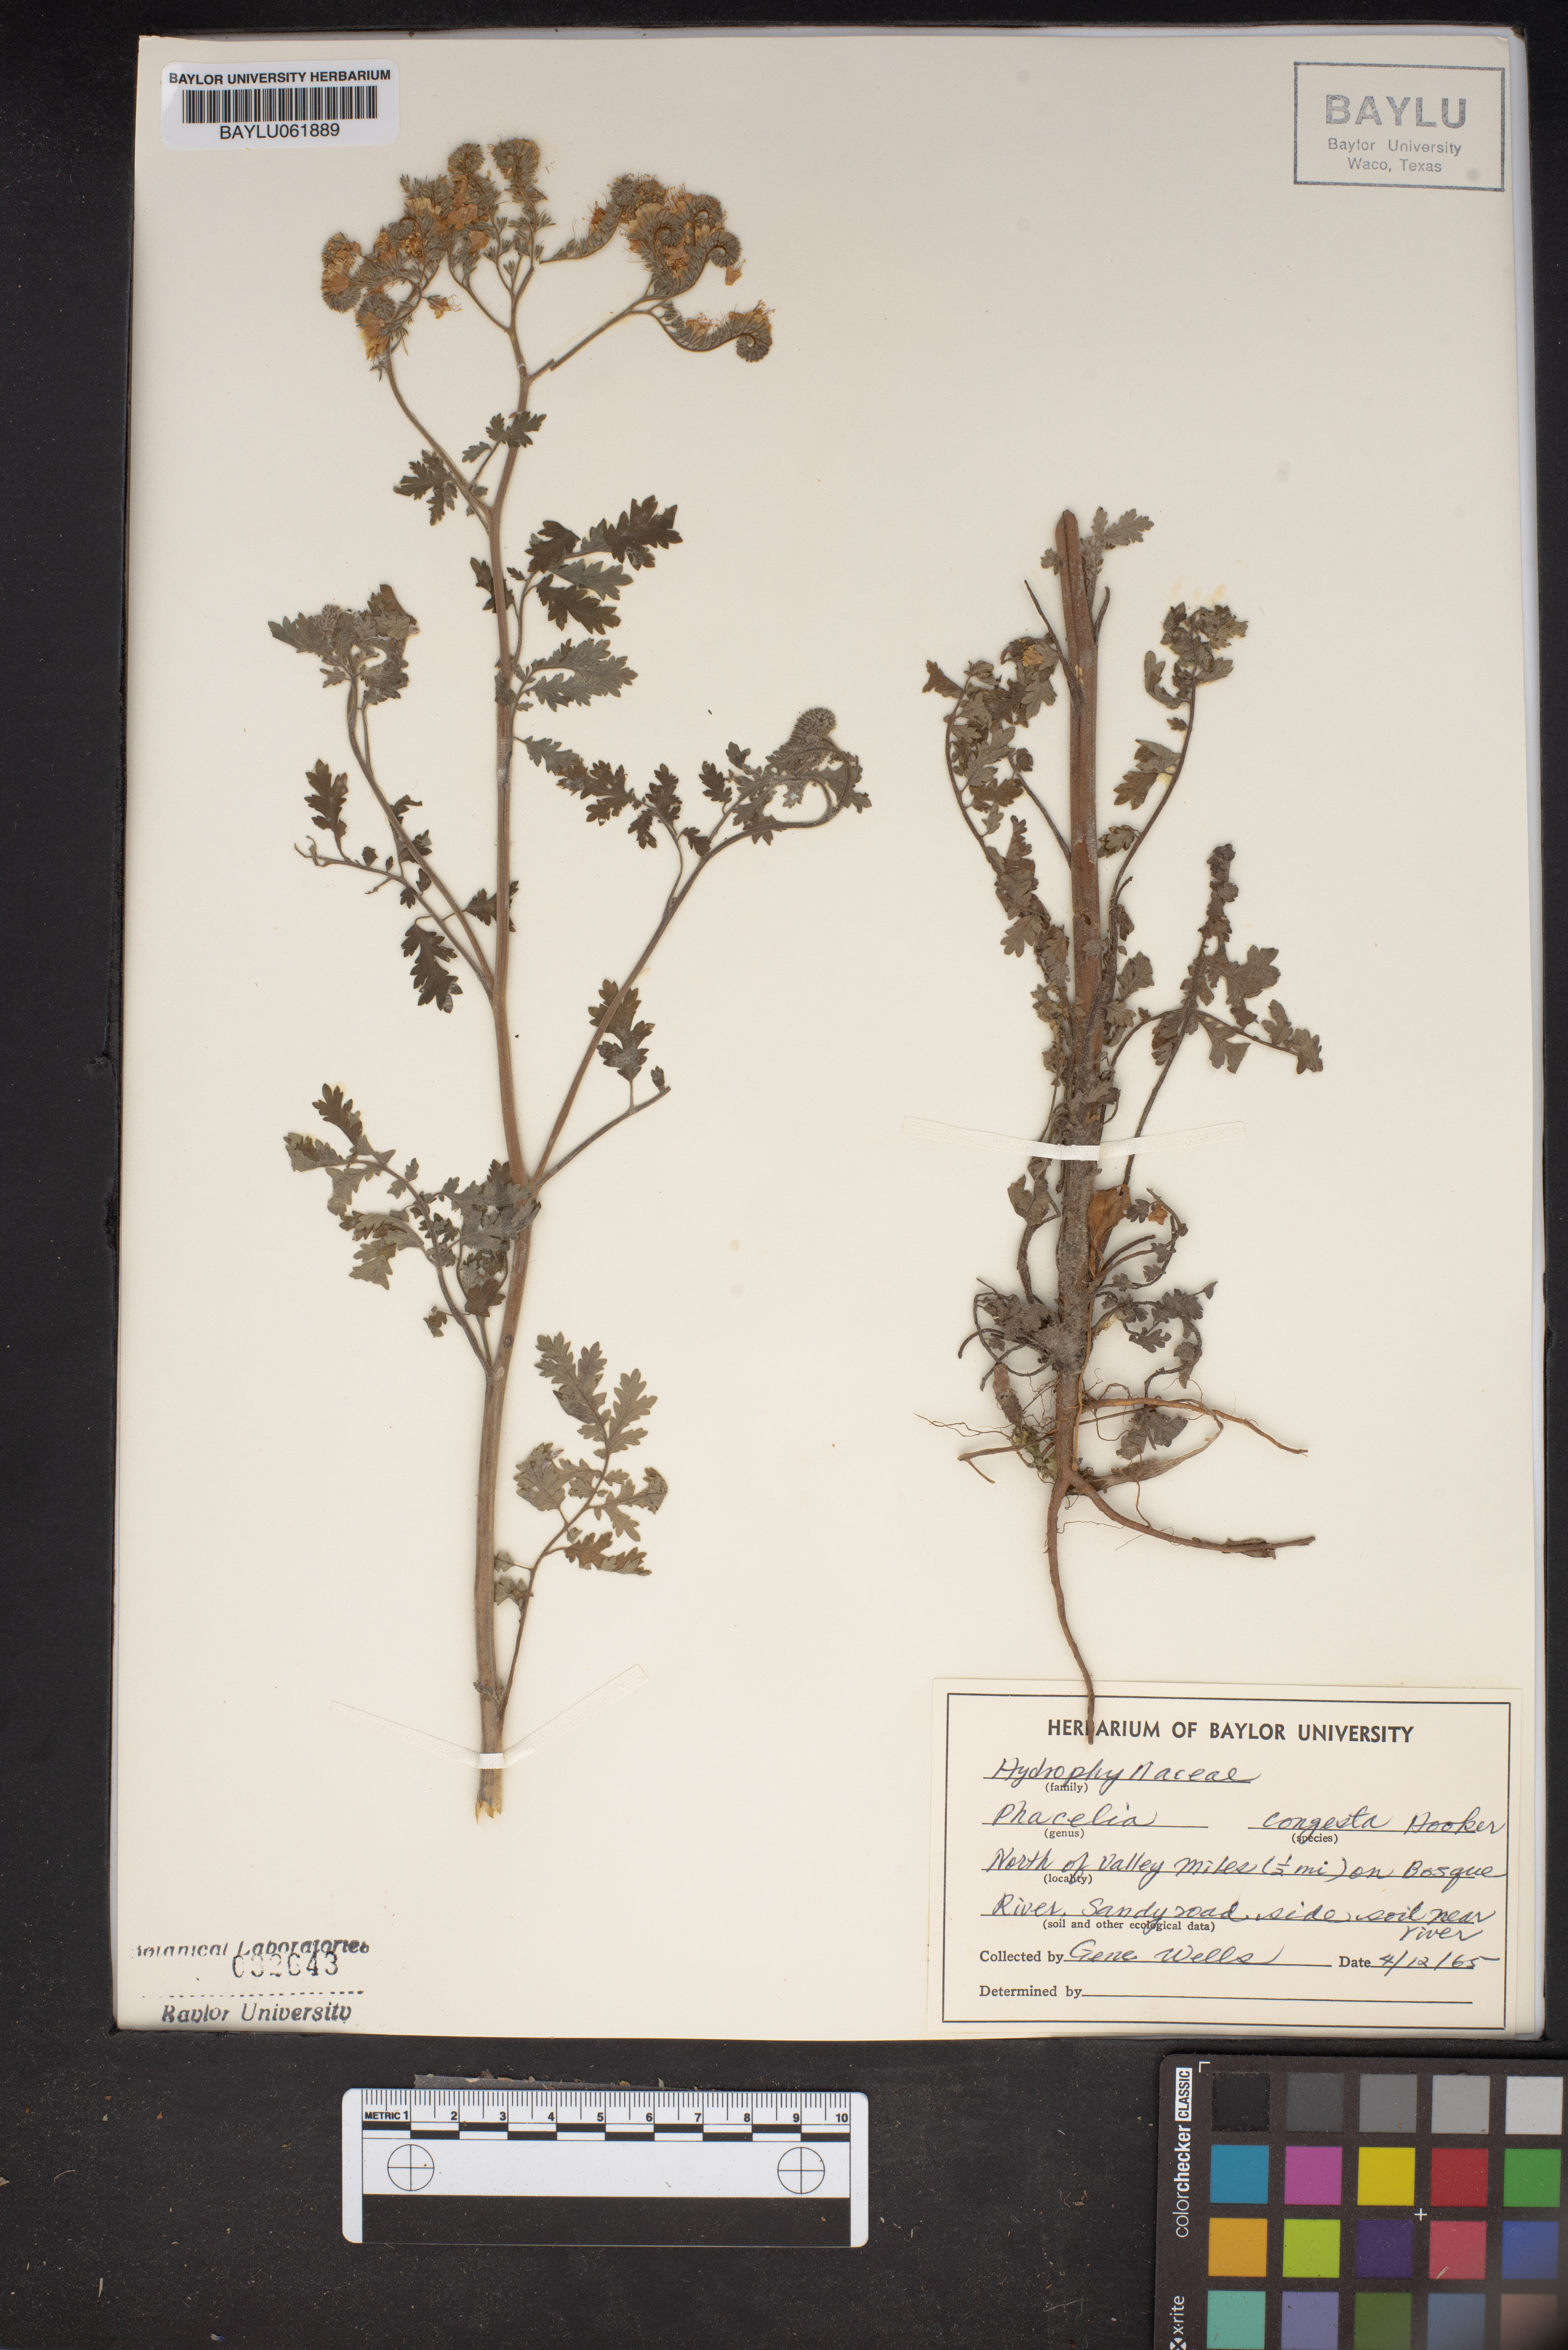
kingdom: Plantae
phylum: Tracheophyta
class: Magnoliopsida
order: Boraginales
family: Hydrophyllaceae
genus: Phacelia
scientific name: Phacelia congesta
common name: Blue curls
